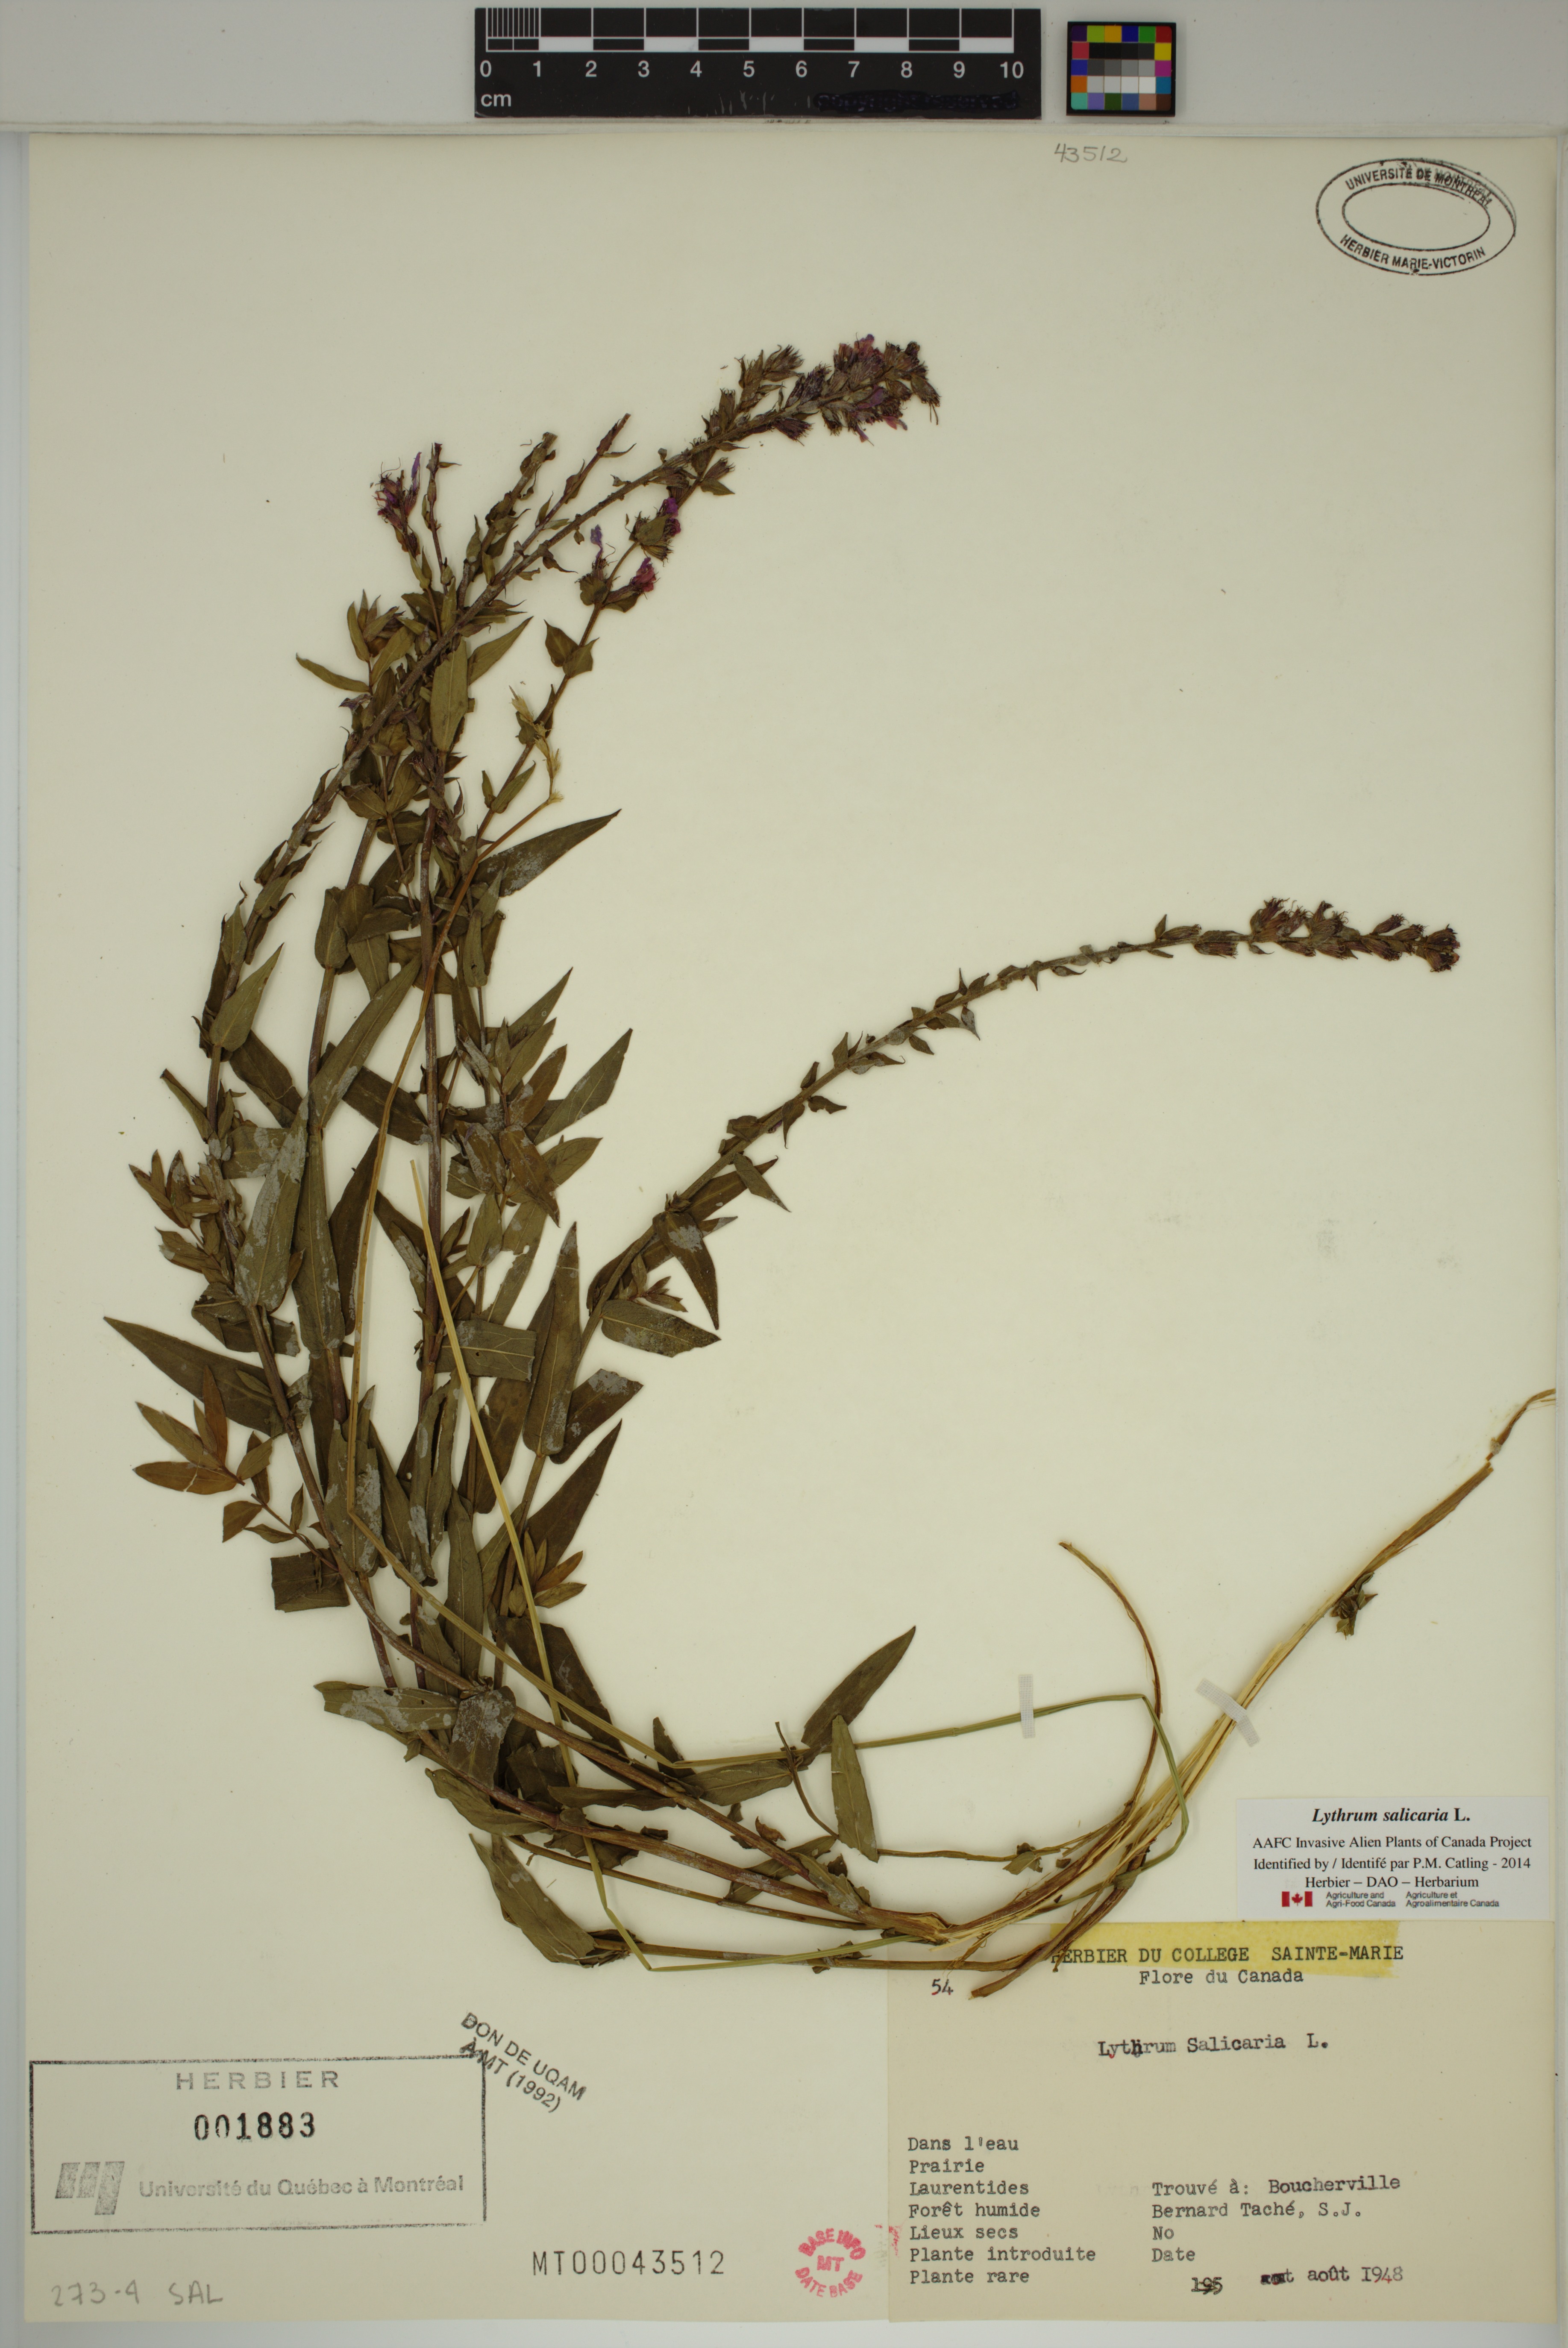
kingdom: Plantae
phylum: Tracheophyta
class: Magnoliopsida
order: Myrtales
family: Lythraceae
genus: Lythrum
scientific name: Lythrum salicaria
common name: Purple loosestrife
